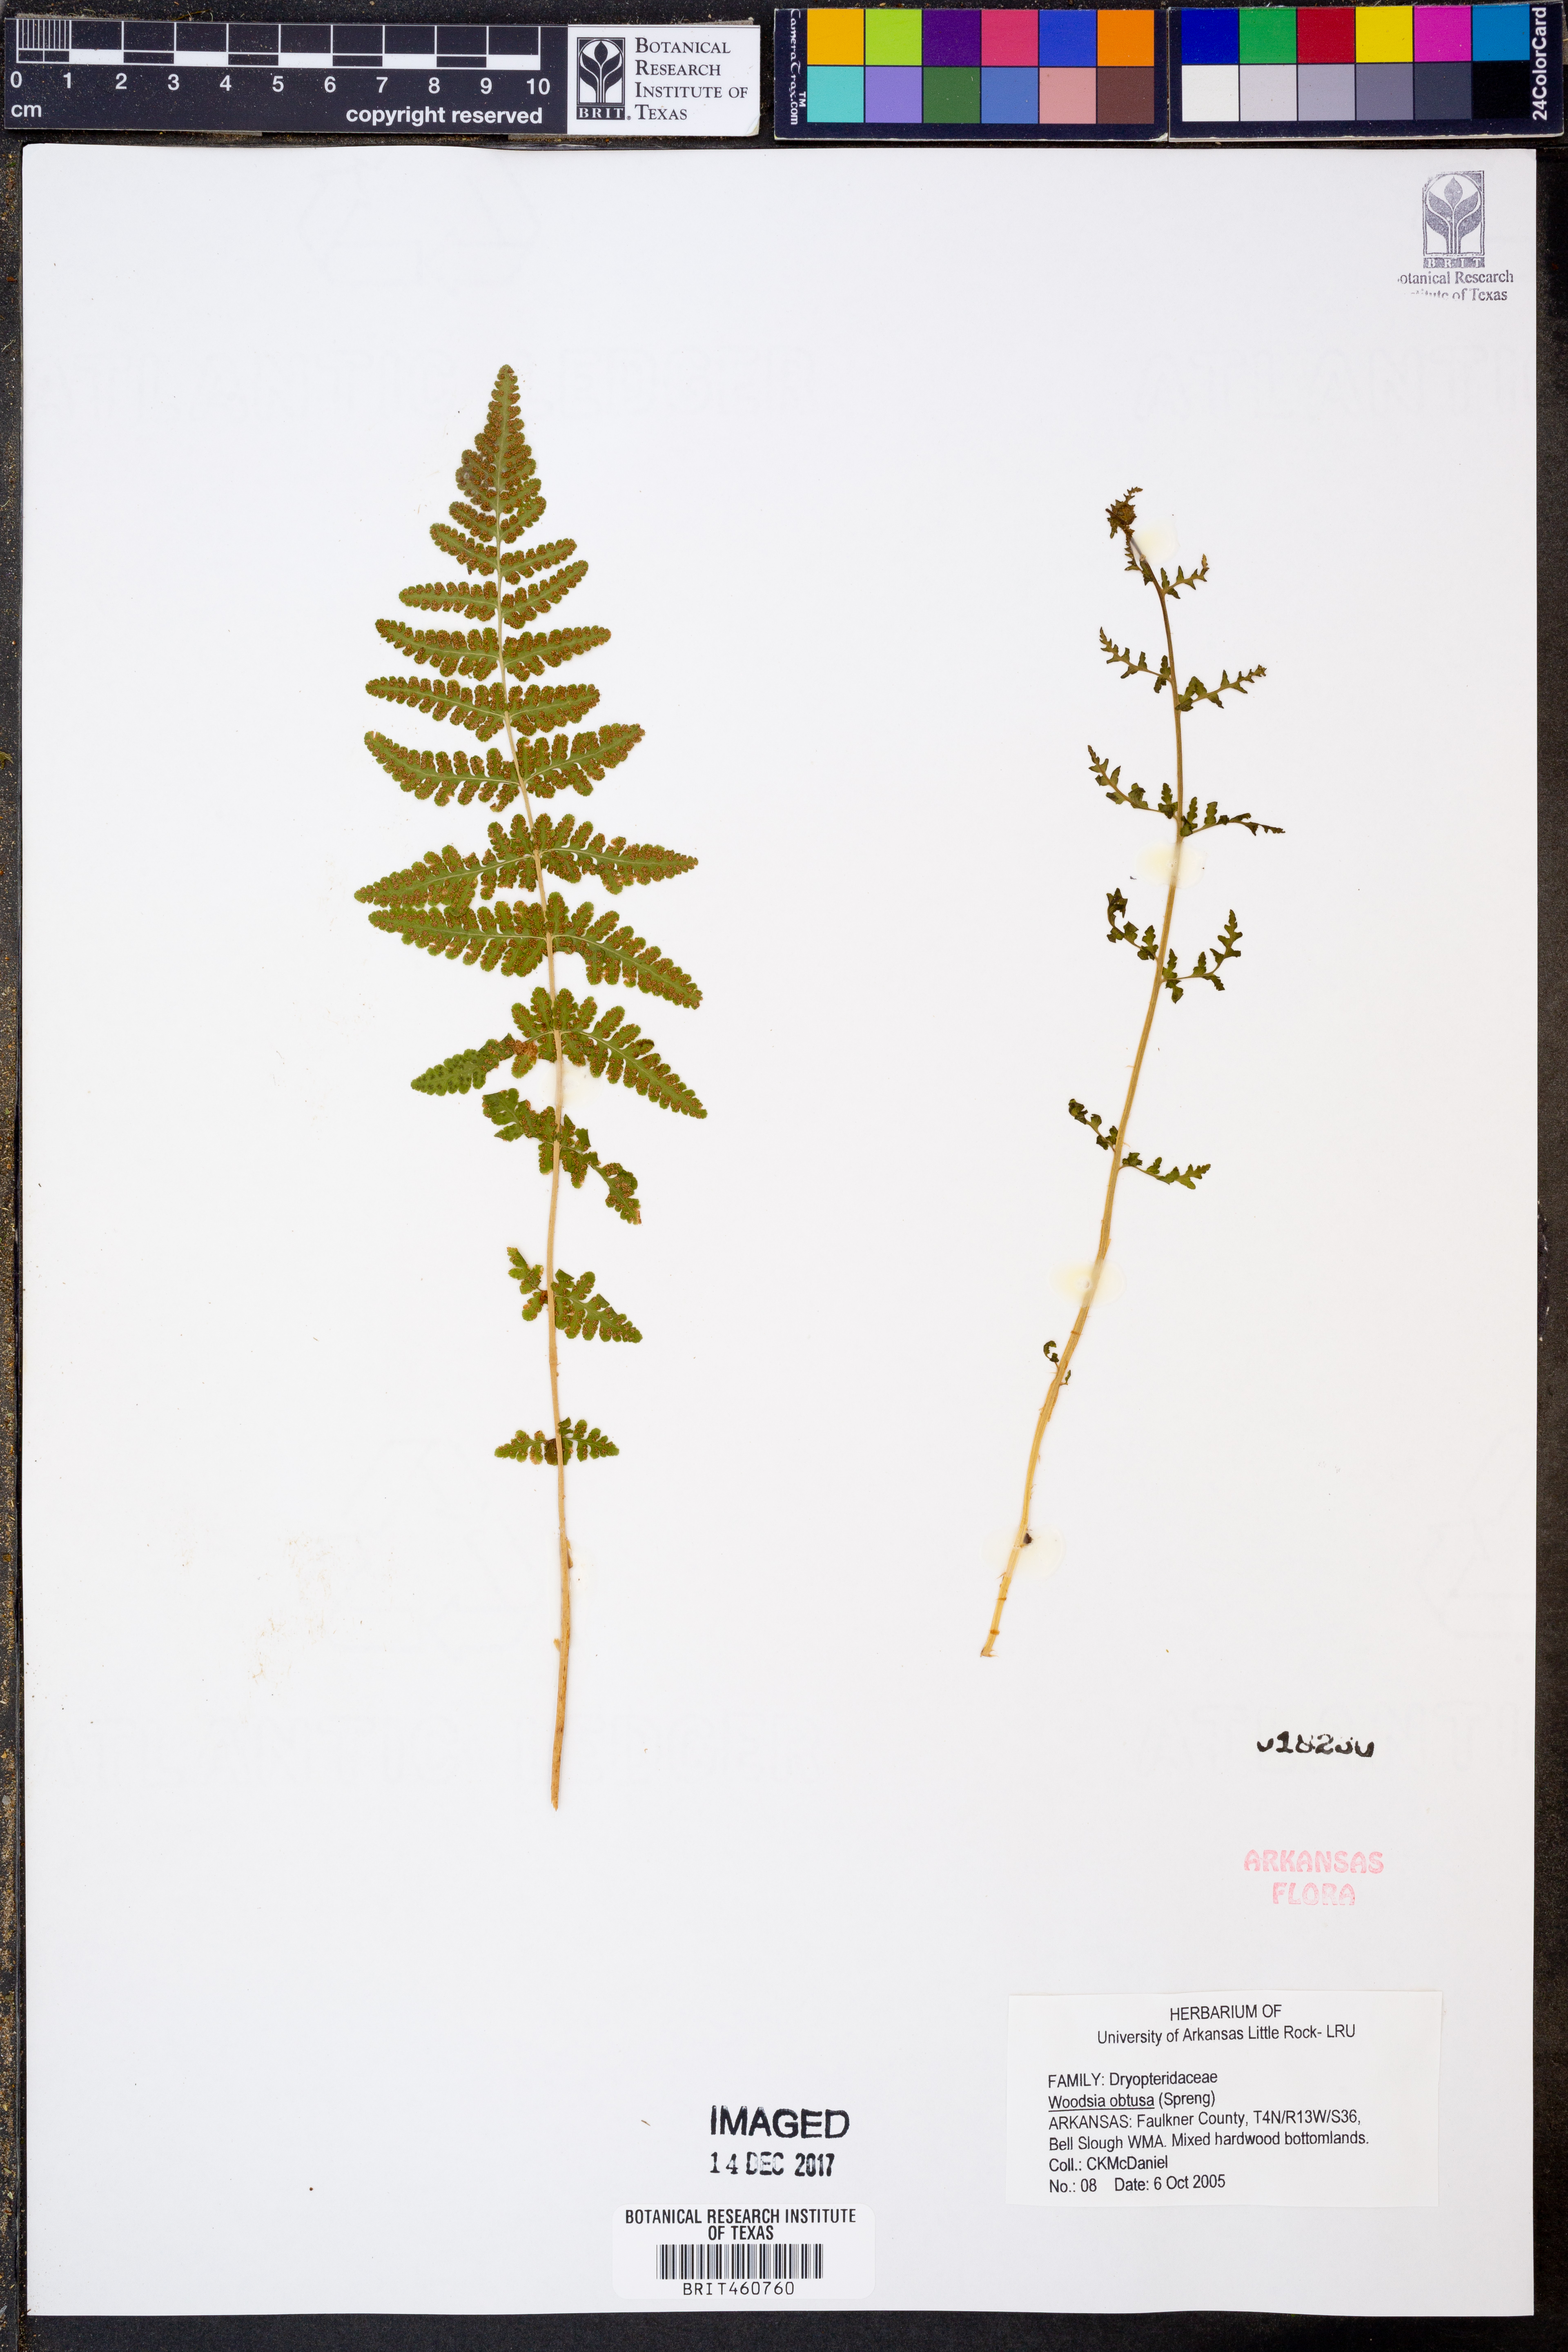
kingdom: Plantae
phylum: Tracheophyta
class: Polypodiopsida
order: Polypodiales
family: Woodsiaceae
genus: Physematium
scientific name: Physematium obtusum
